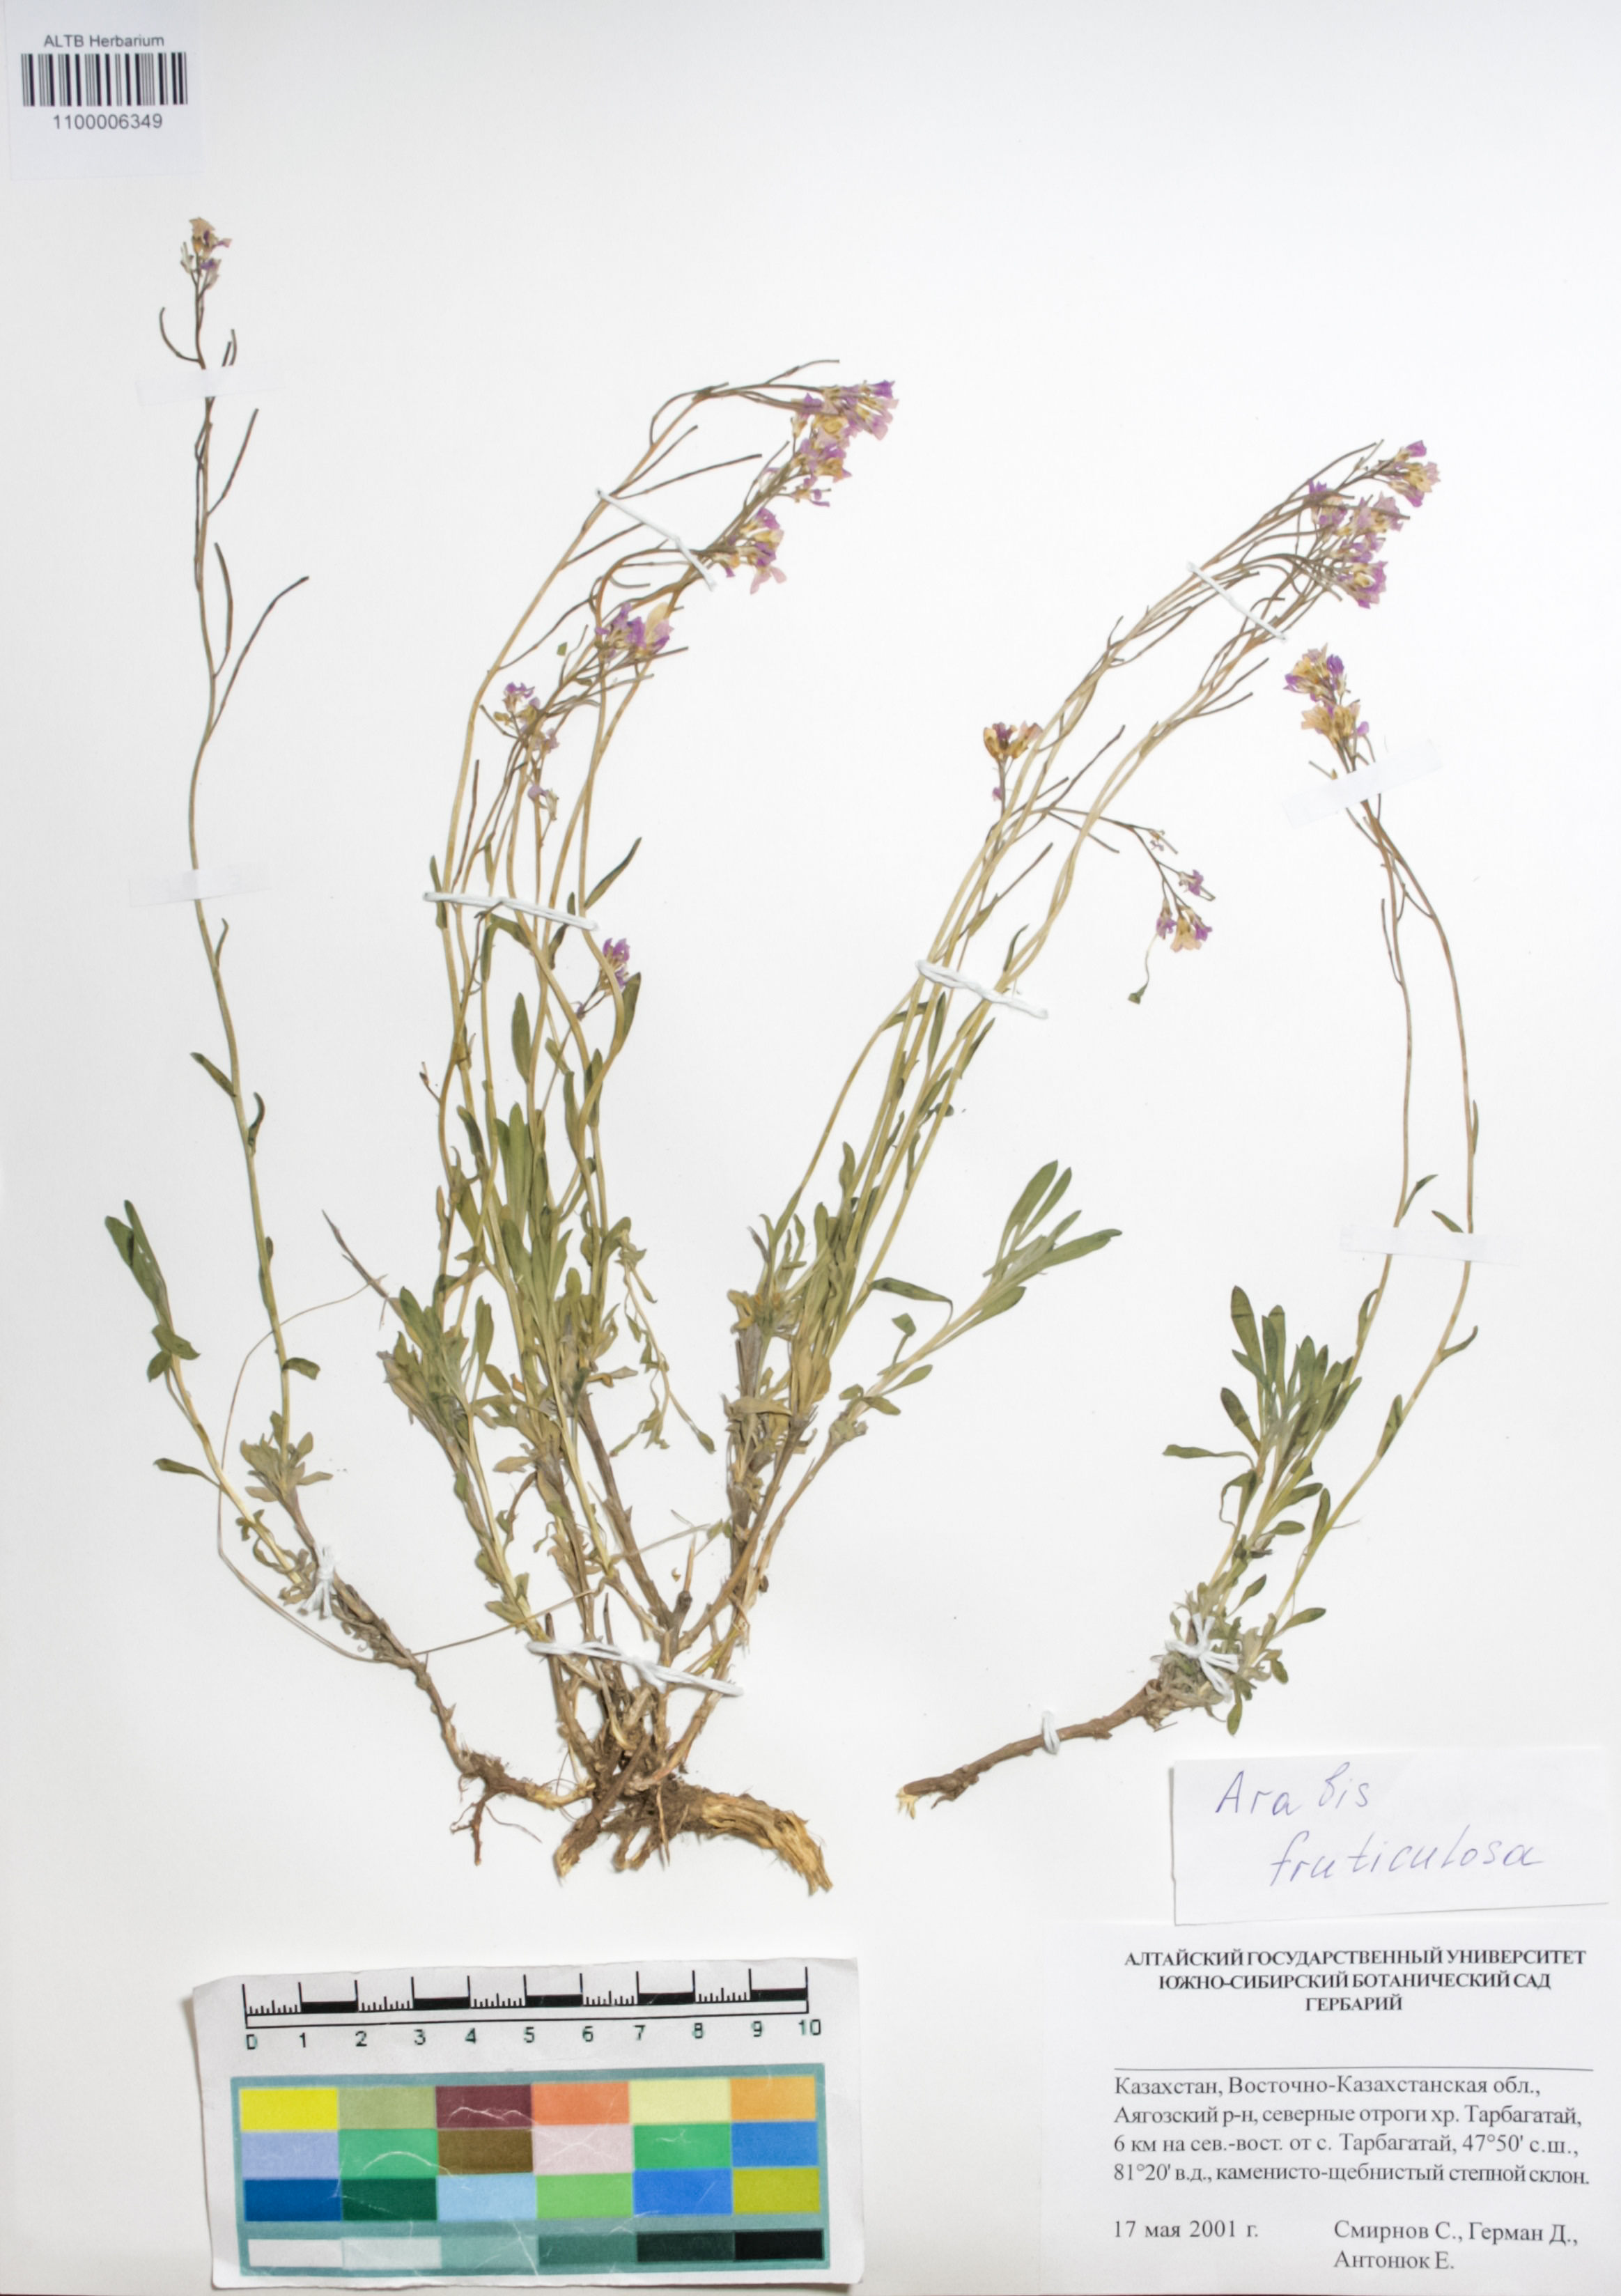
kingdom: Plantae
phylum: Tracheophyta
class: Magnoliopsida
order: Brassicales
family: Brassicaceae
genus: Dendroarabis
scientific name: Dendroarabis fruticulosa
